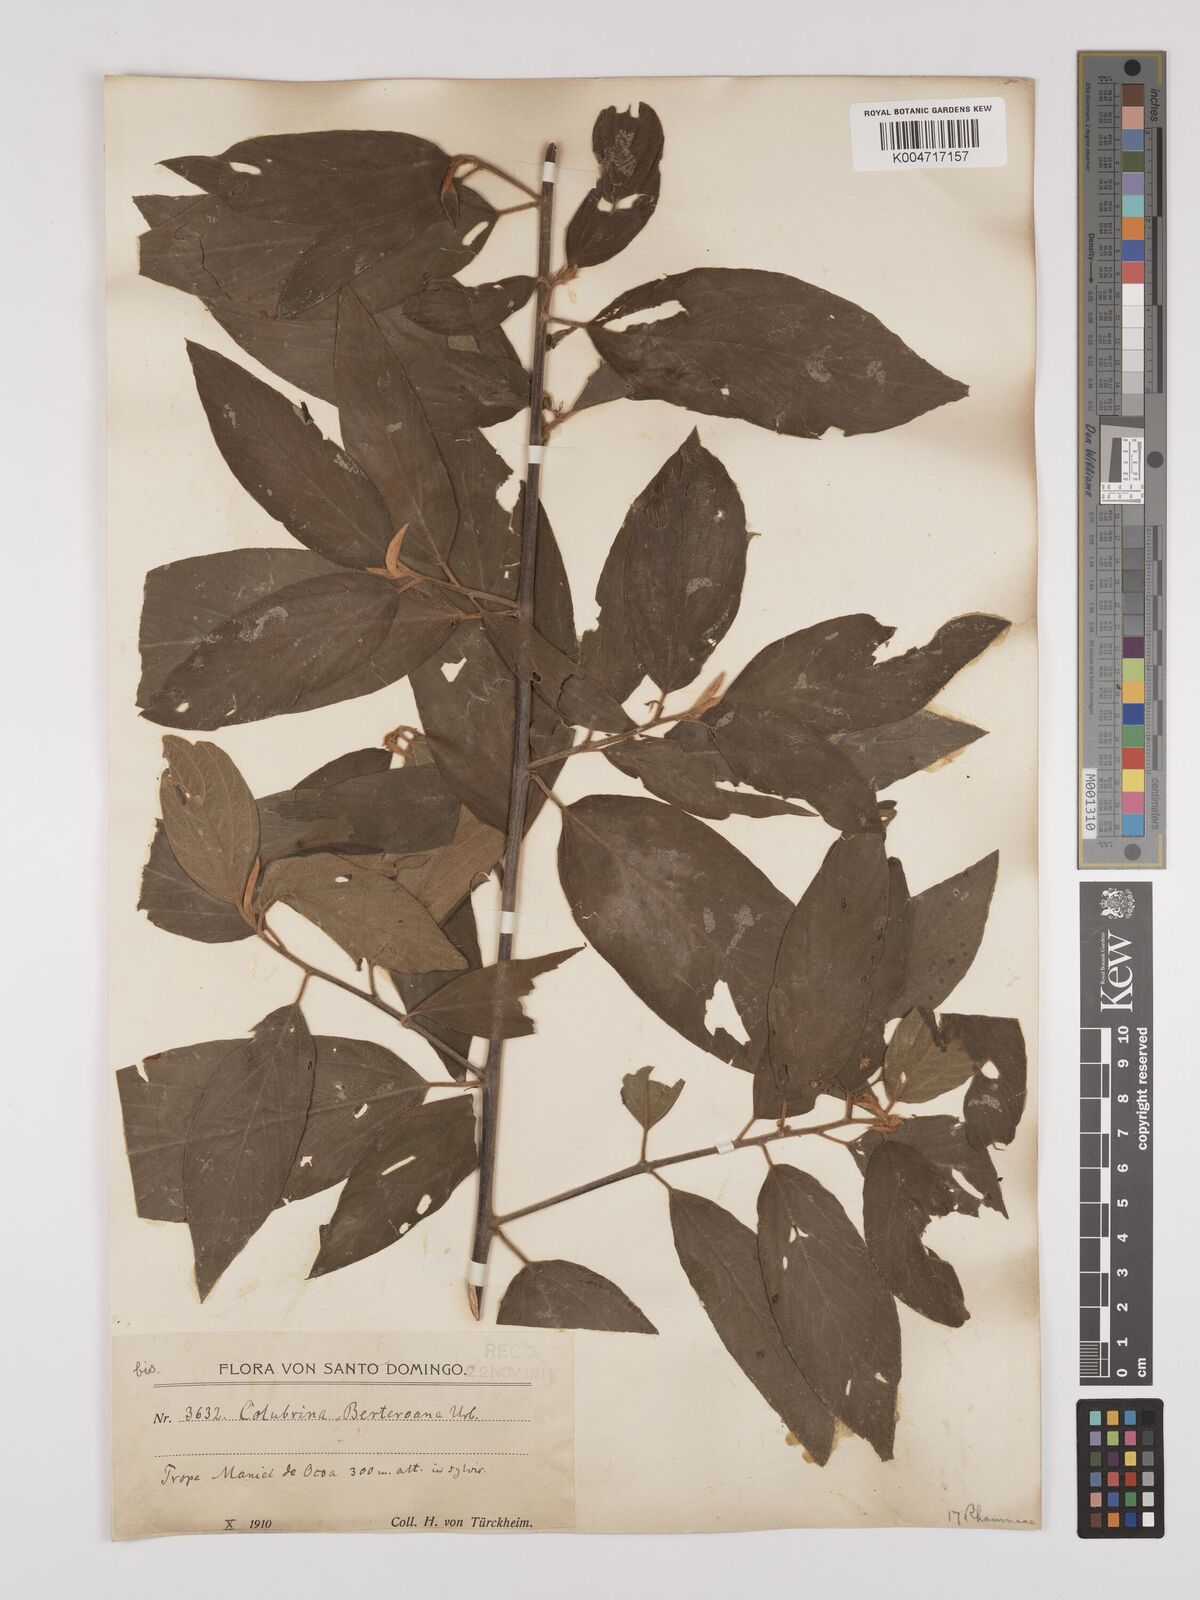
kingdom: Plantae
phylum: Tracheophyta
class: Magnoliopsida
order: Rosales
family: Rhamnaceae
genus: Colubrina
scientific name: Colubrina berteroana
